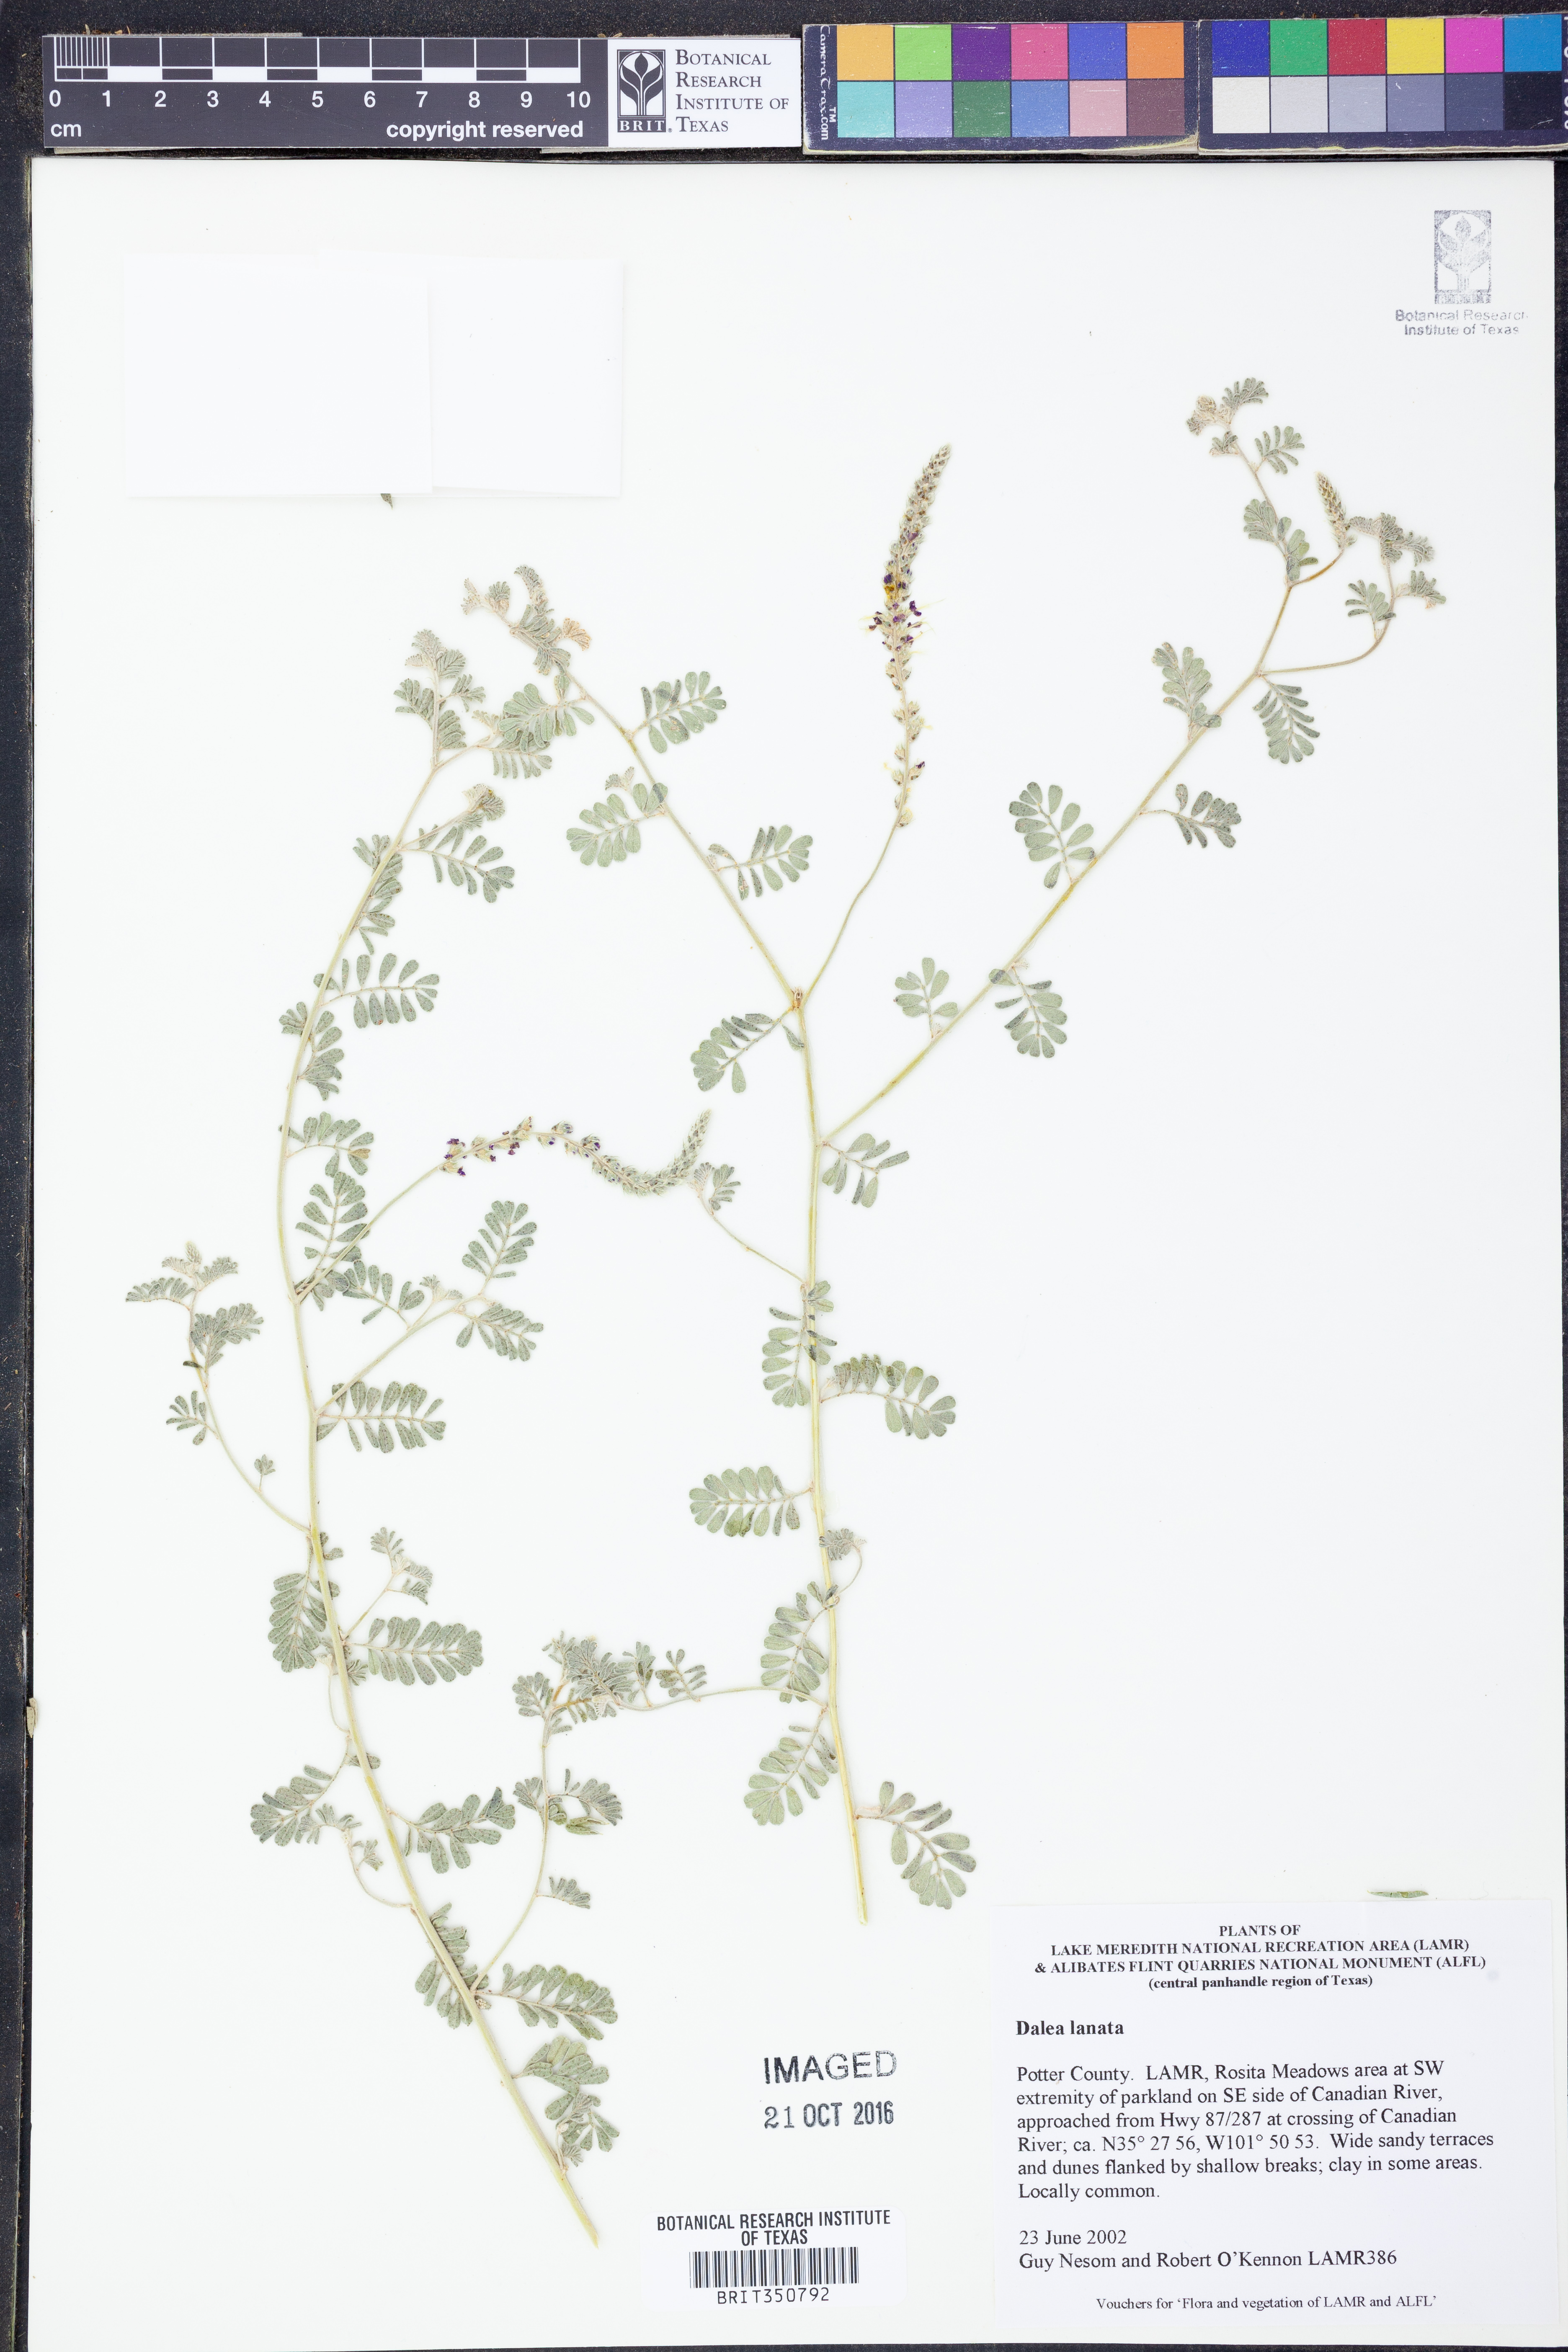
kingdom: Plantae
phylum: Tracheophyta
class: Magnoliopsida
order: Fabales
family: Fabaceae
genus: Dalea
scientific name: Dalea lanata
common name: Woolly dalea
